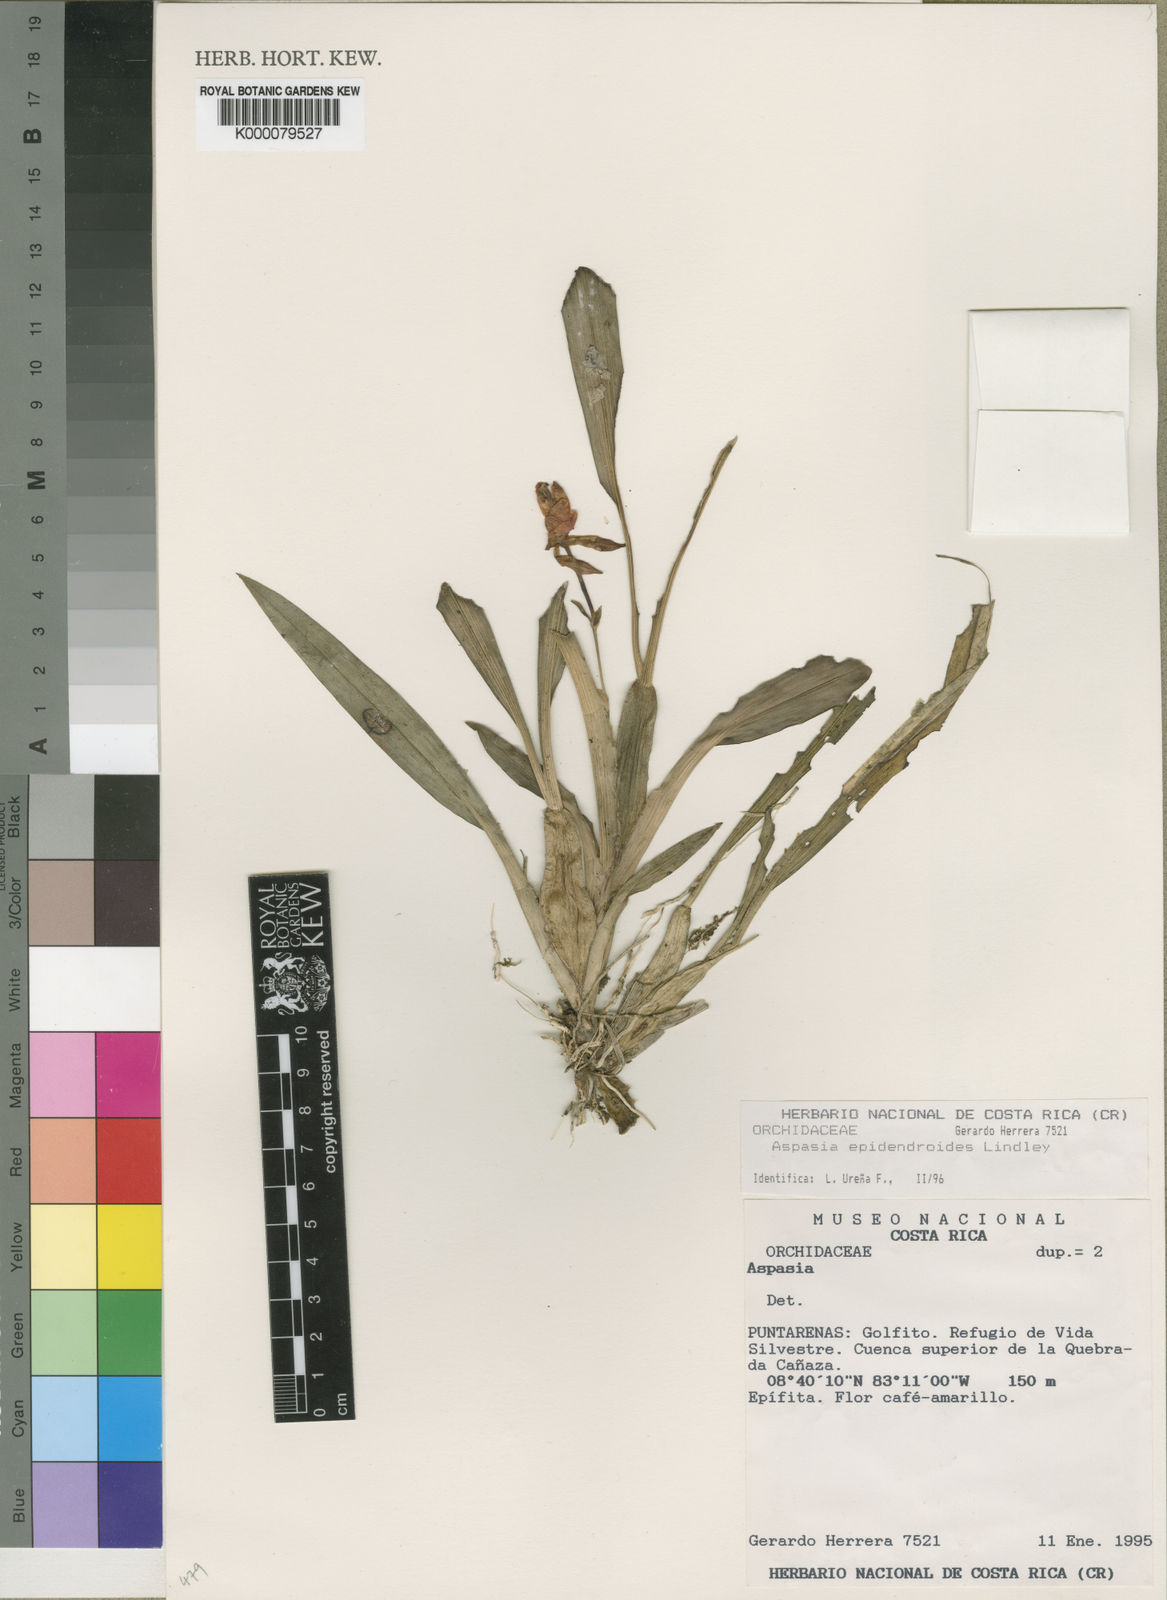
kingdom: Plantae
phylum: Tracheophyta
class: Liliopsida
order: Asparagales
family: Orchidaceae
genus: Aspasia
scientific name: Aspasia epidendroides
